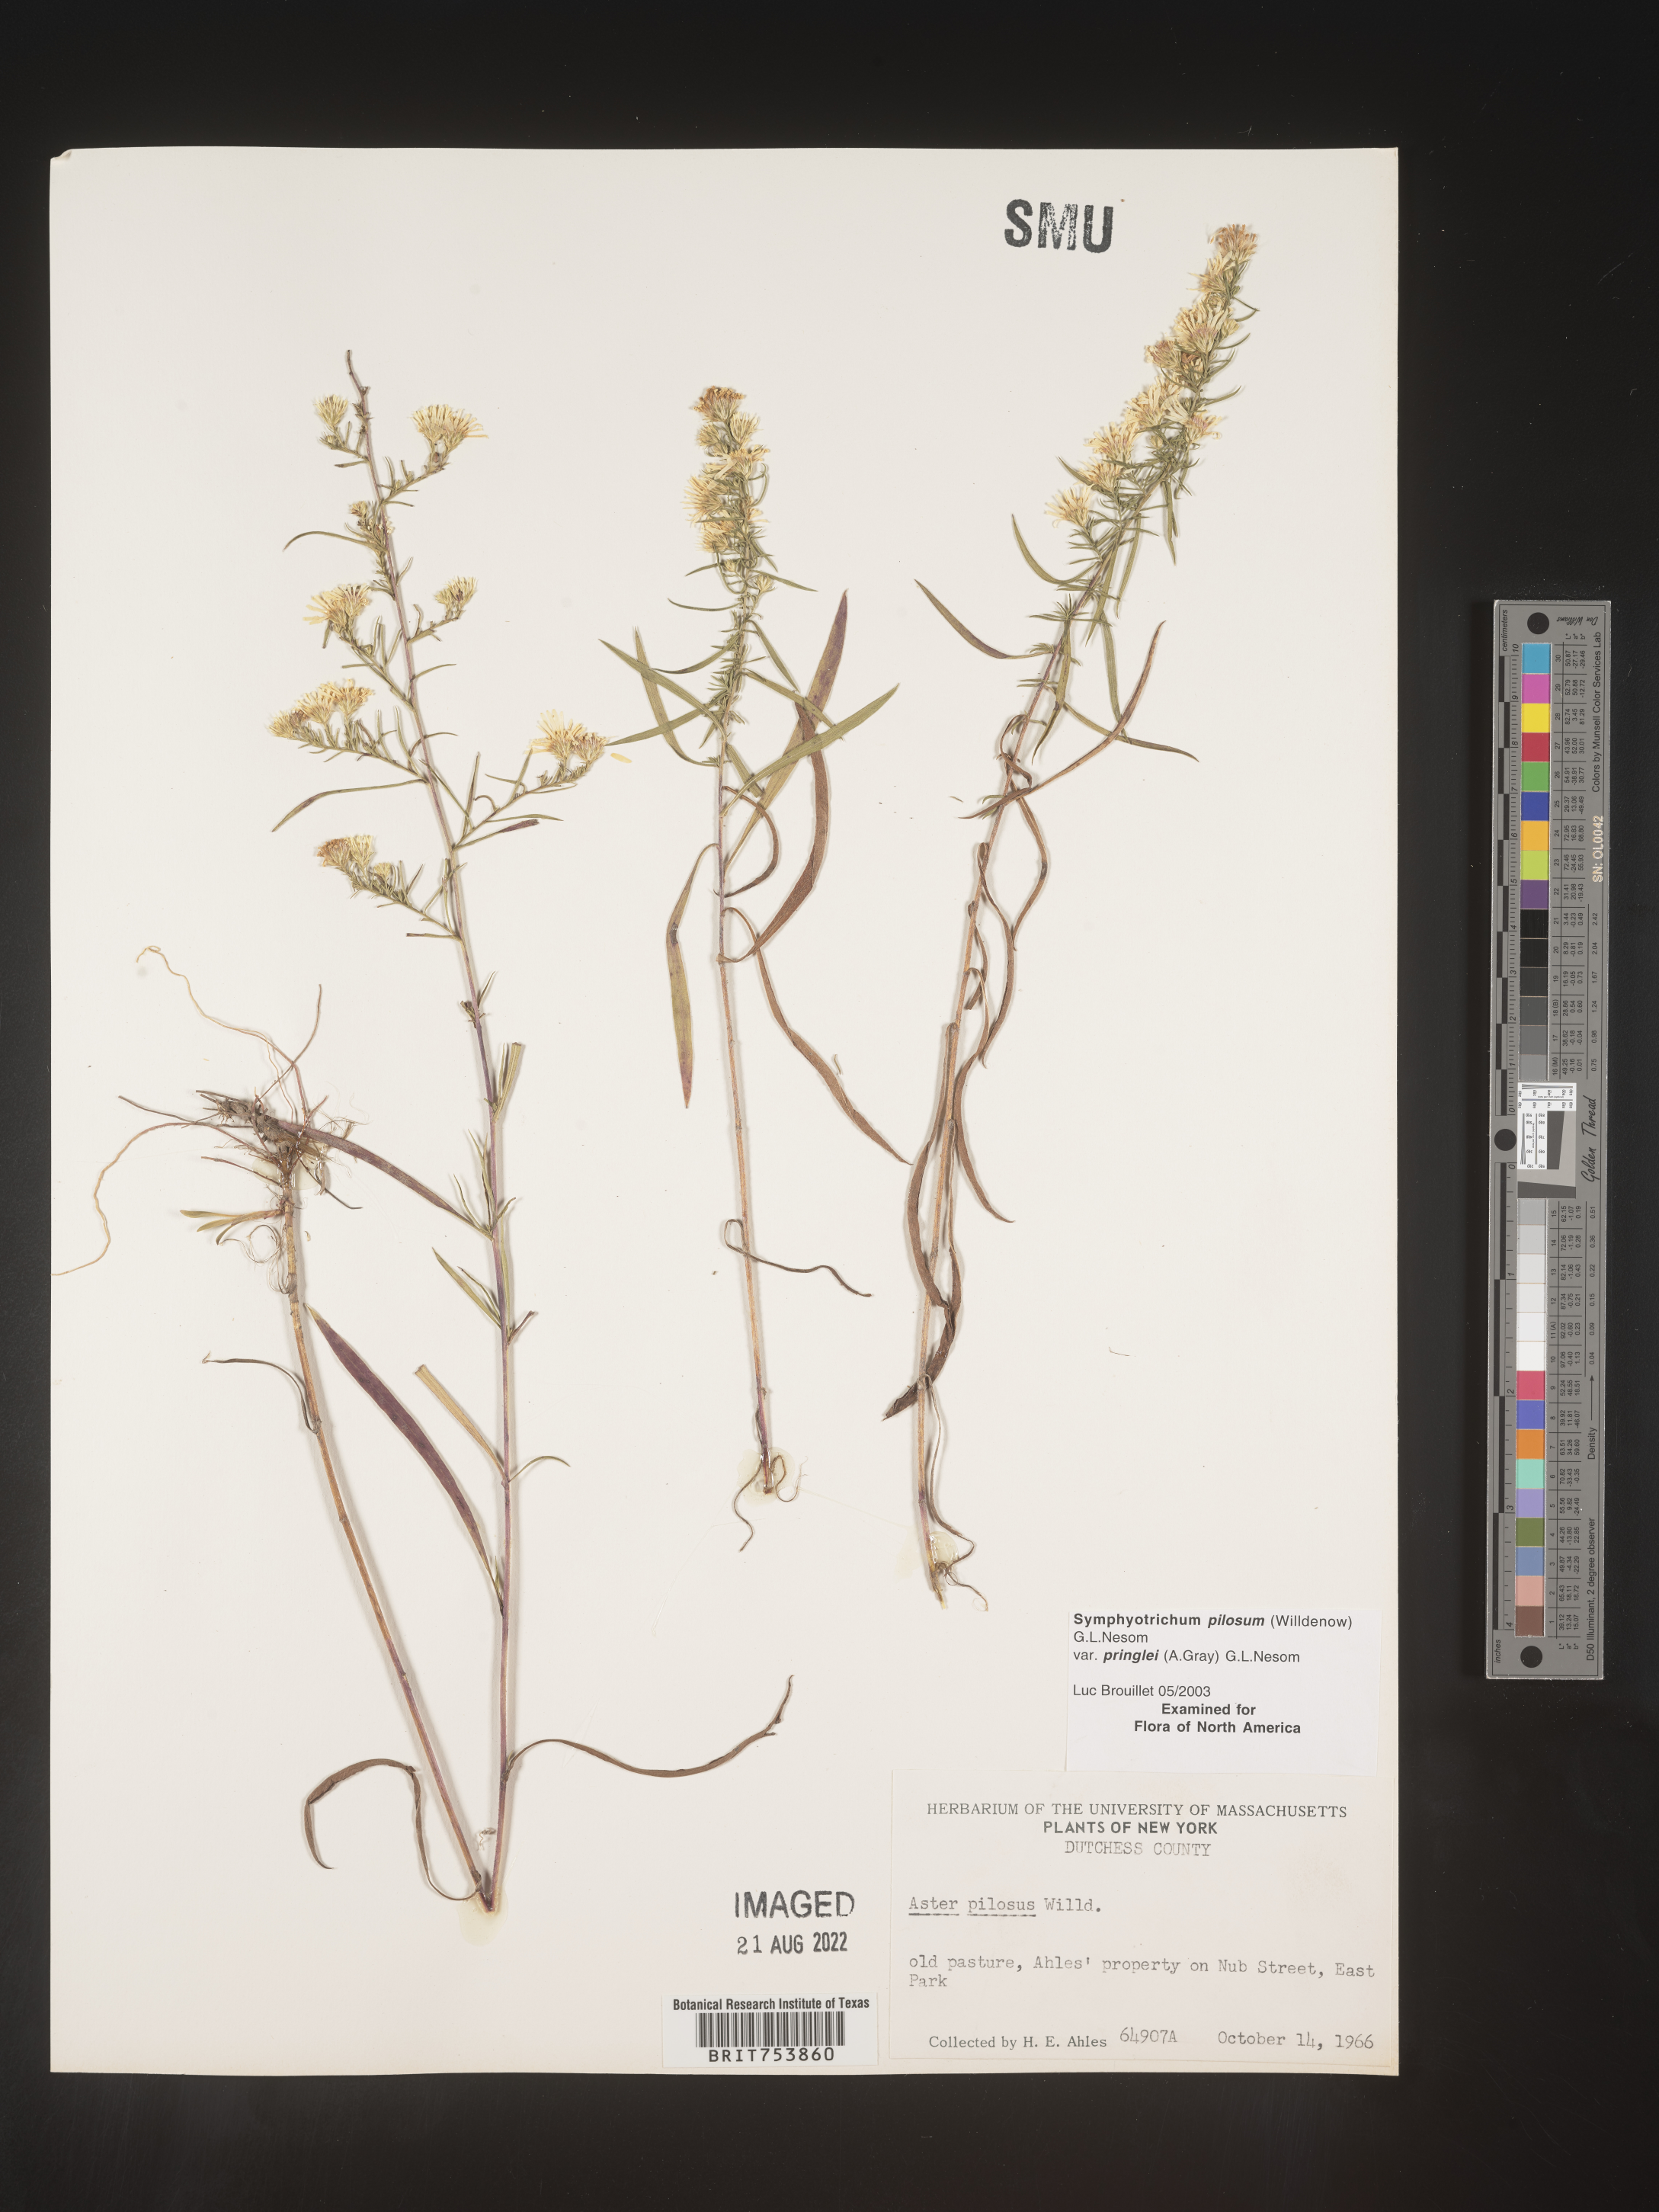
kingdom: Plantae
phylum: Tracheophyta
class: Magnoliopsida
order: Asterales
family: Asteraceae
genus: Symphyotrichum
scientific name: Symphyotrichum pilosum
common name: Awl aster
